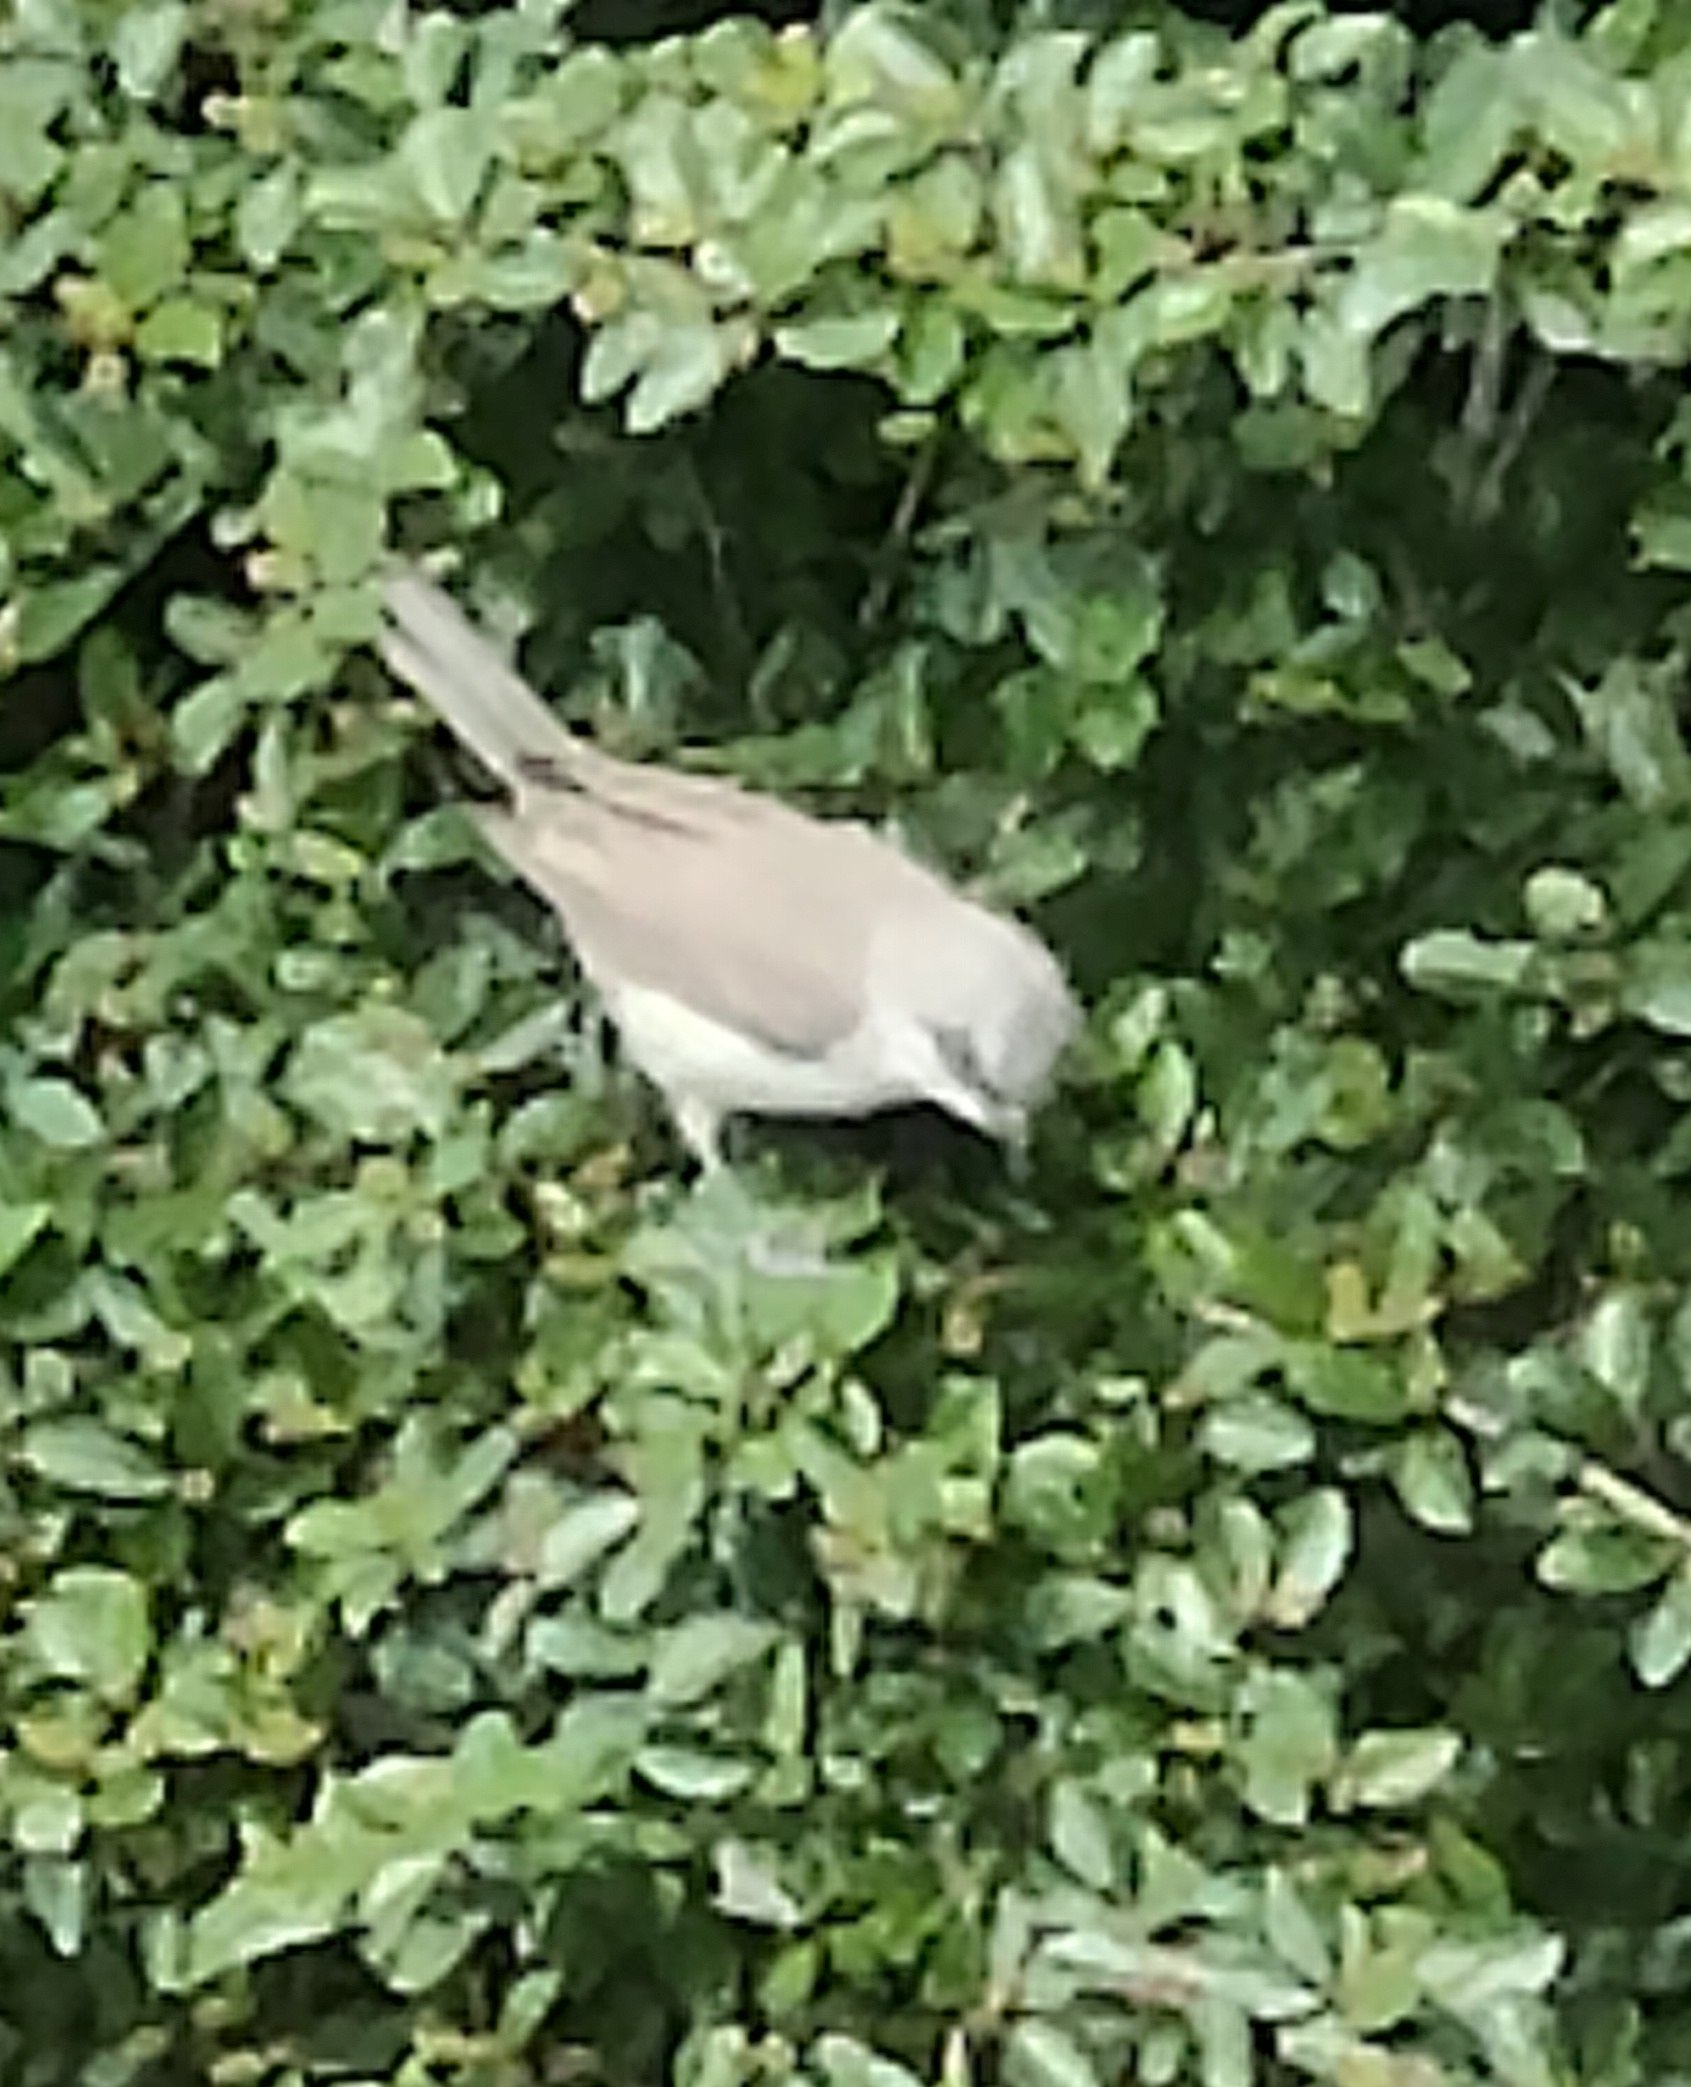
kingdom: Animalia
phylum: Chordata
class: Aves
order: Passeriformes
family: Sylviidae
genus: Sylvia
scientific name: Sylvia curruca
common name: Gærdesanger
